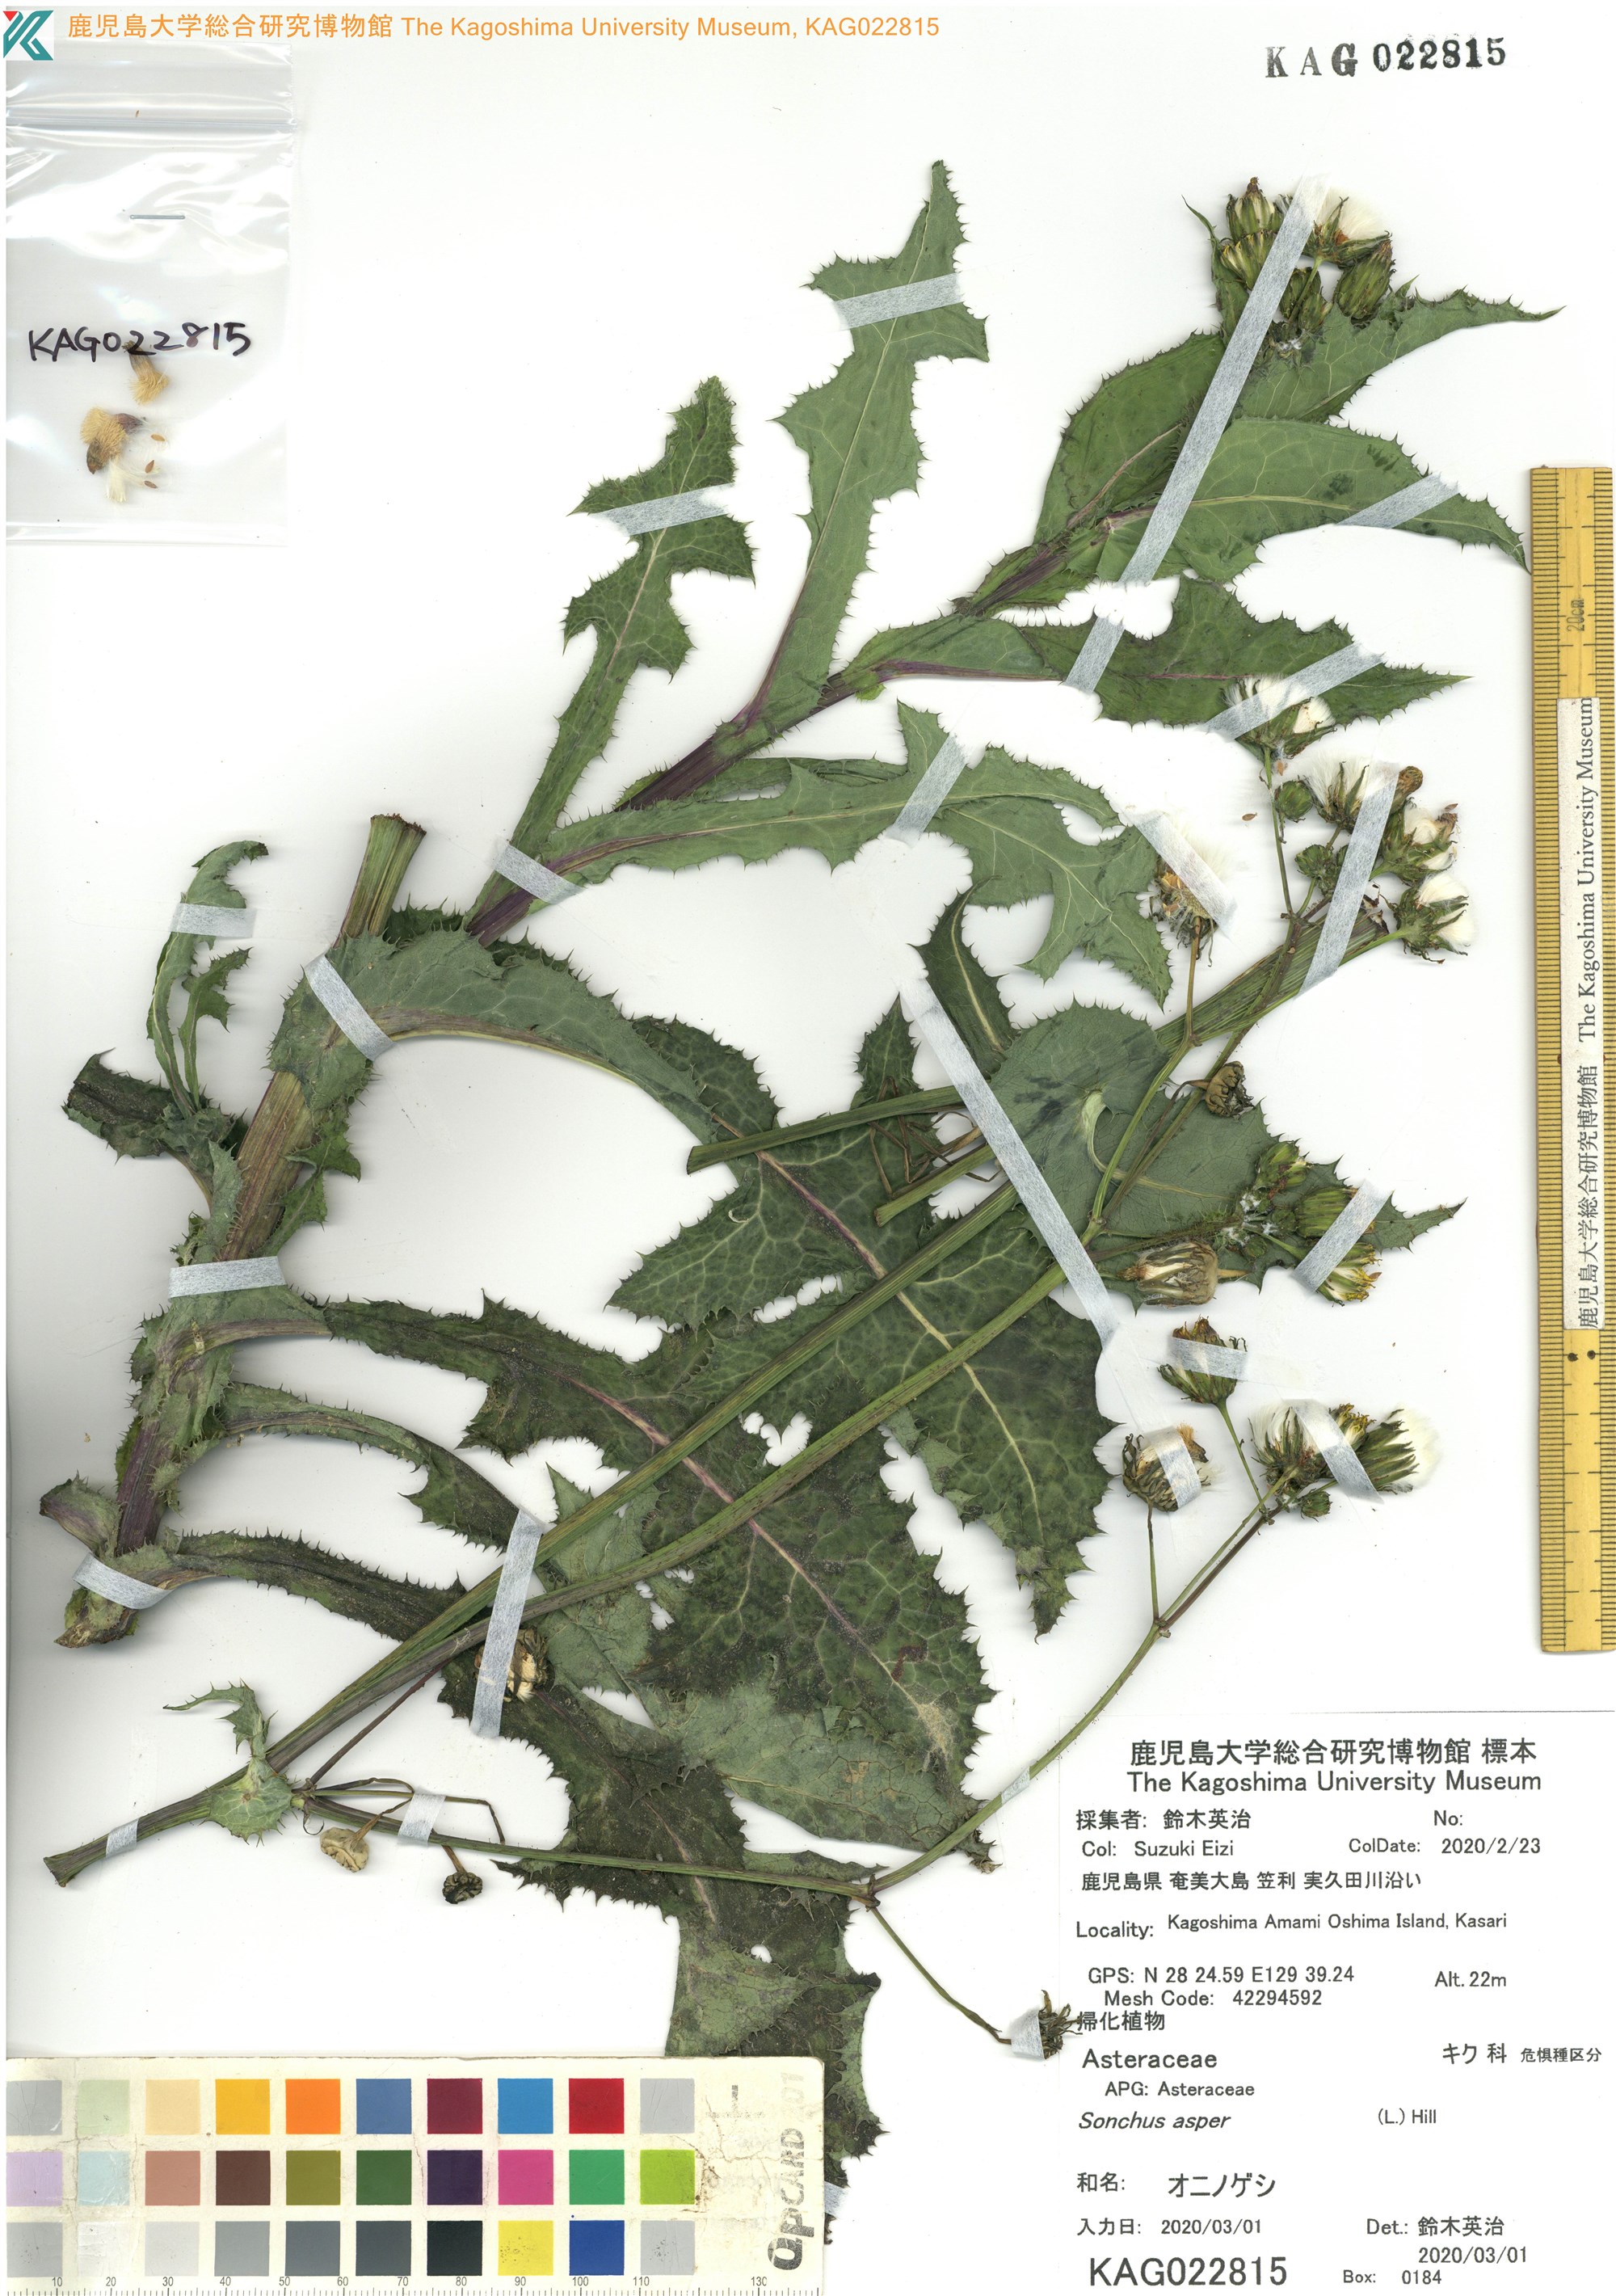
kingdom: Plantae
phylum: Tracheophyta
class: Magnoliopsida
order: Asterales
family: Asteraceae
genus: Sonchus
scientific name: Sonchus asper
